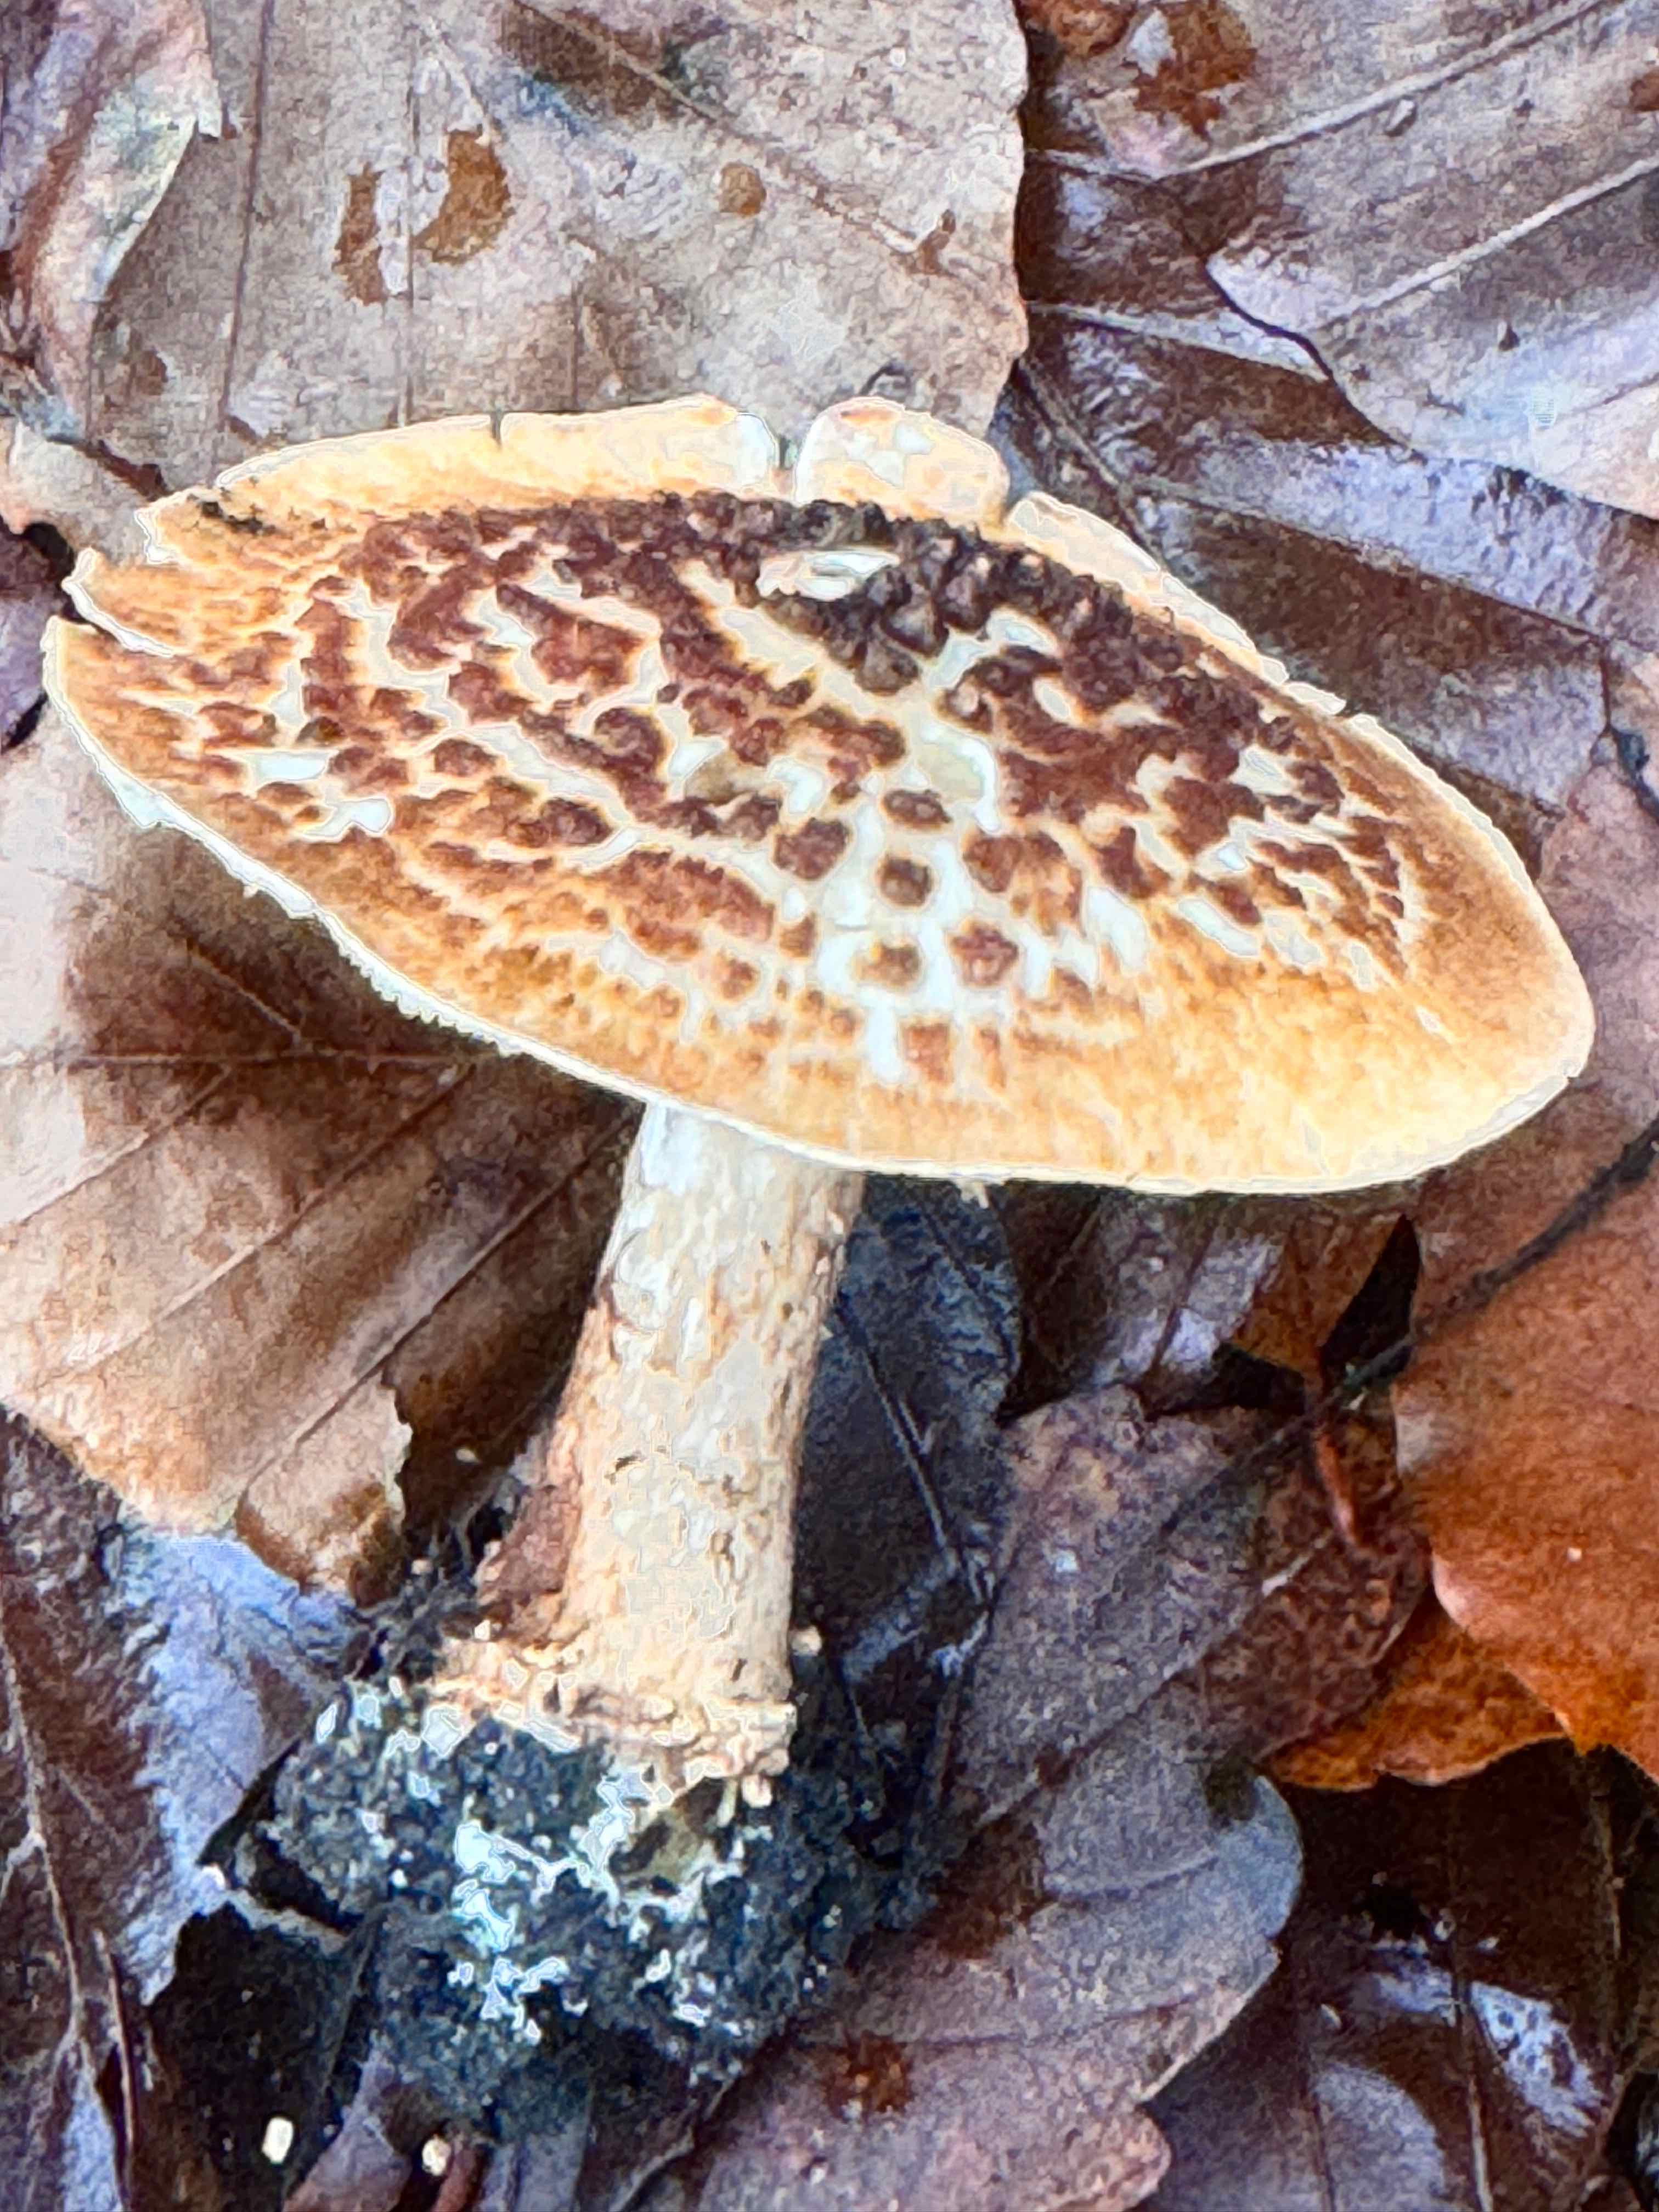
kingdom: Fungi
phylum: Basidiomycota
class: Agaricomycetes
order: Agaricales
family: Agaricaceae
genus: Echinoderma
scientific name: Echinoderma asperum
